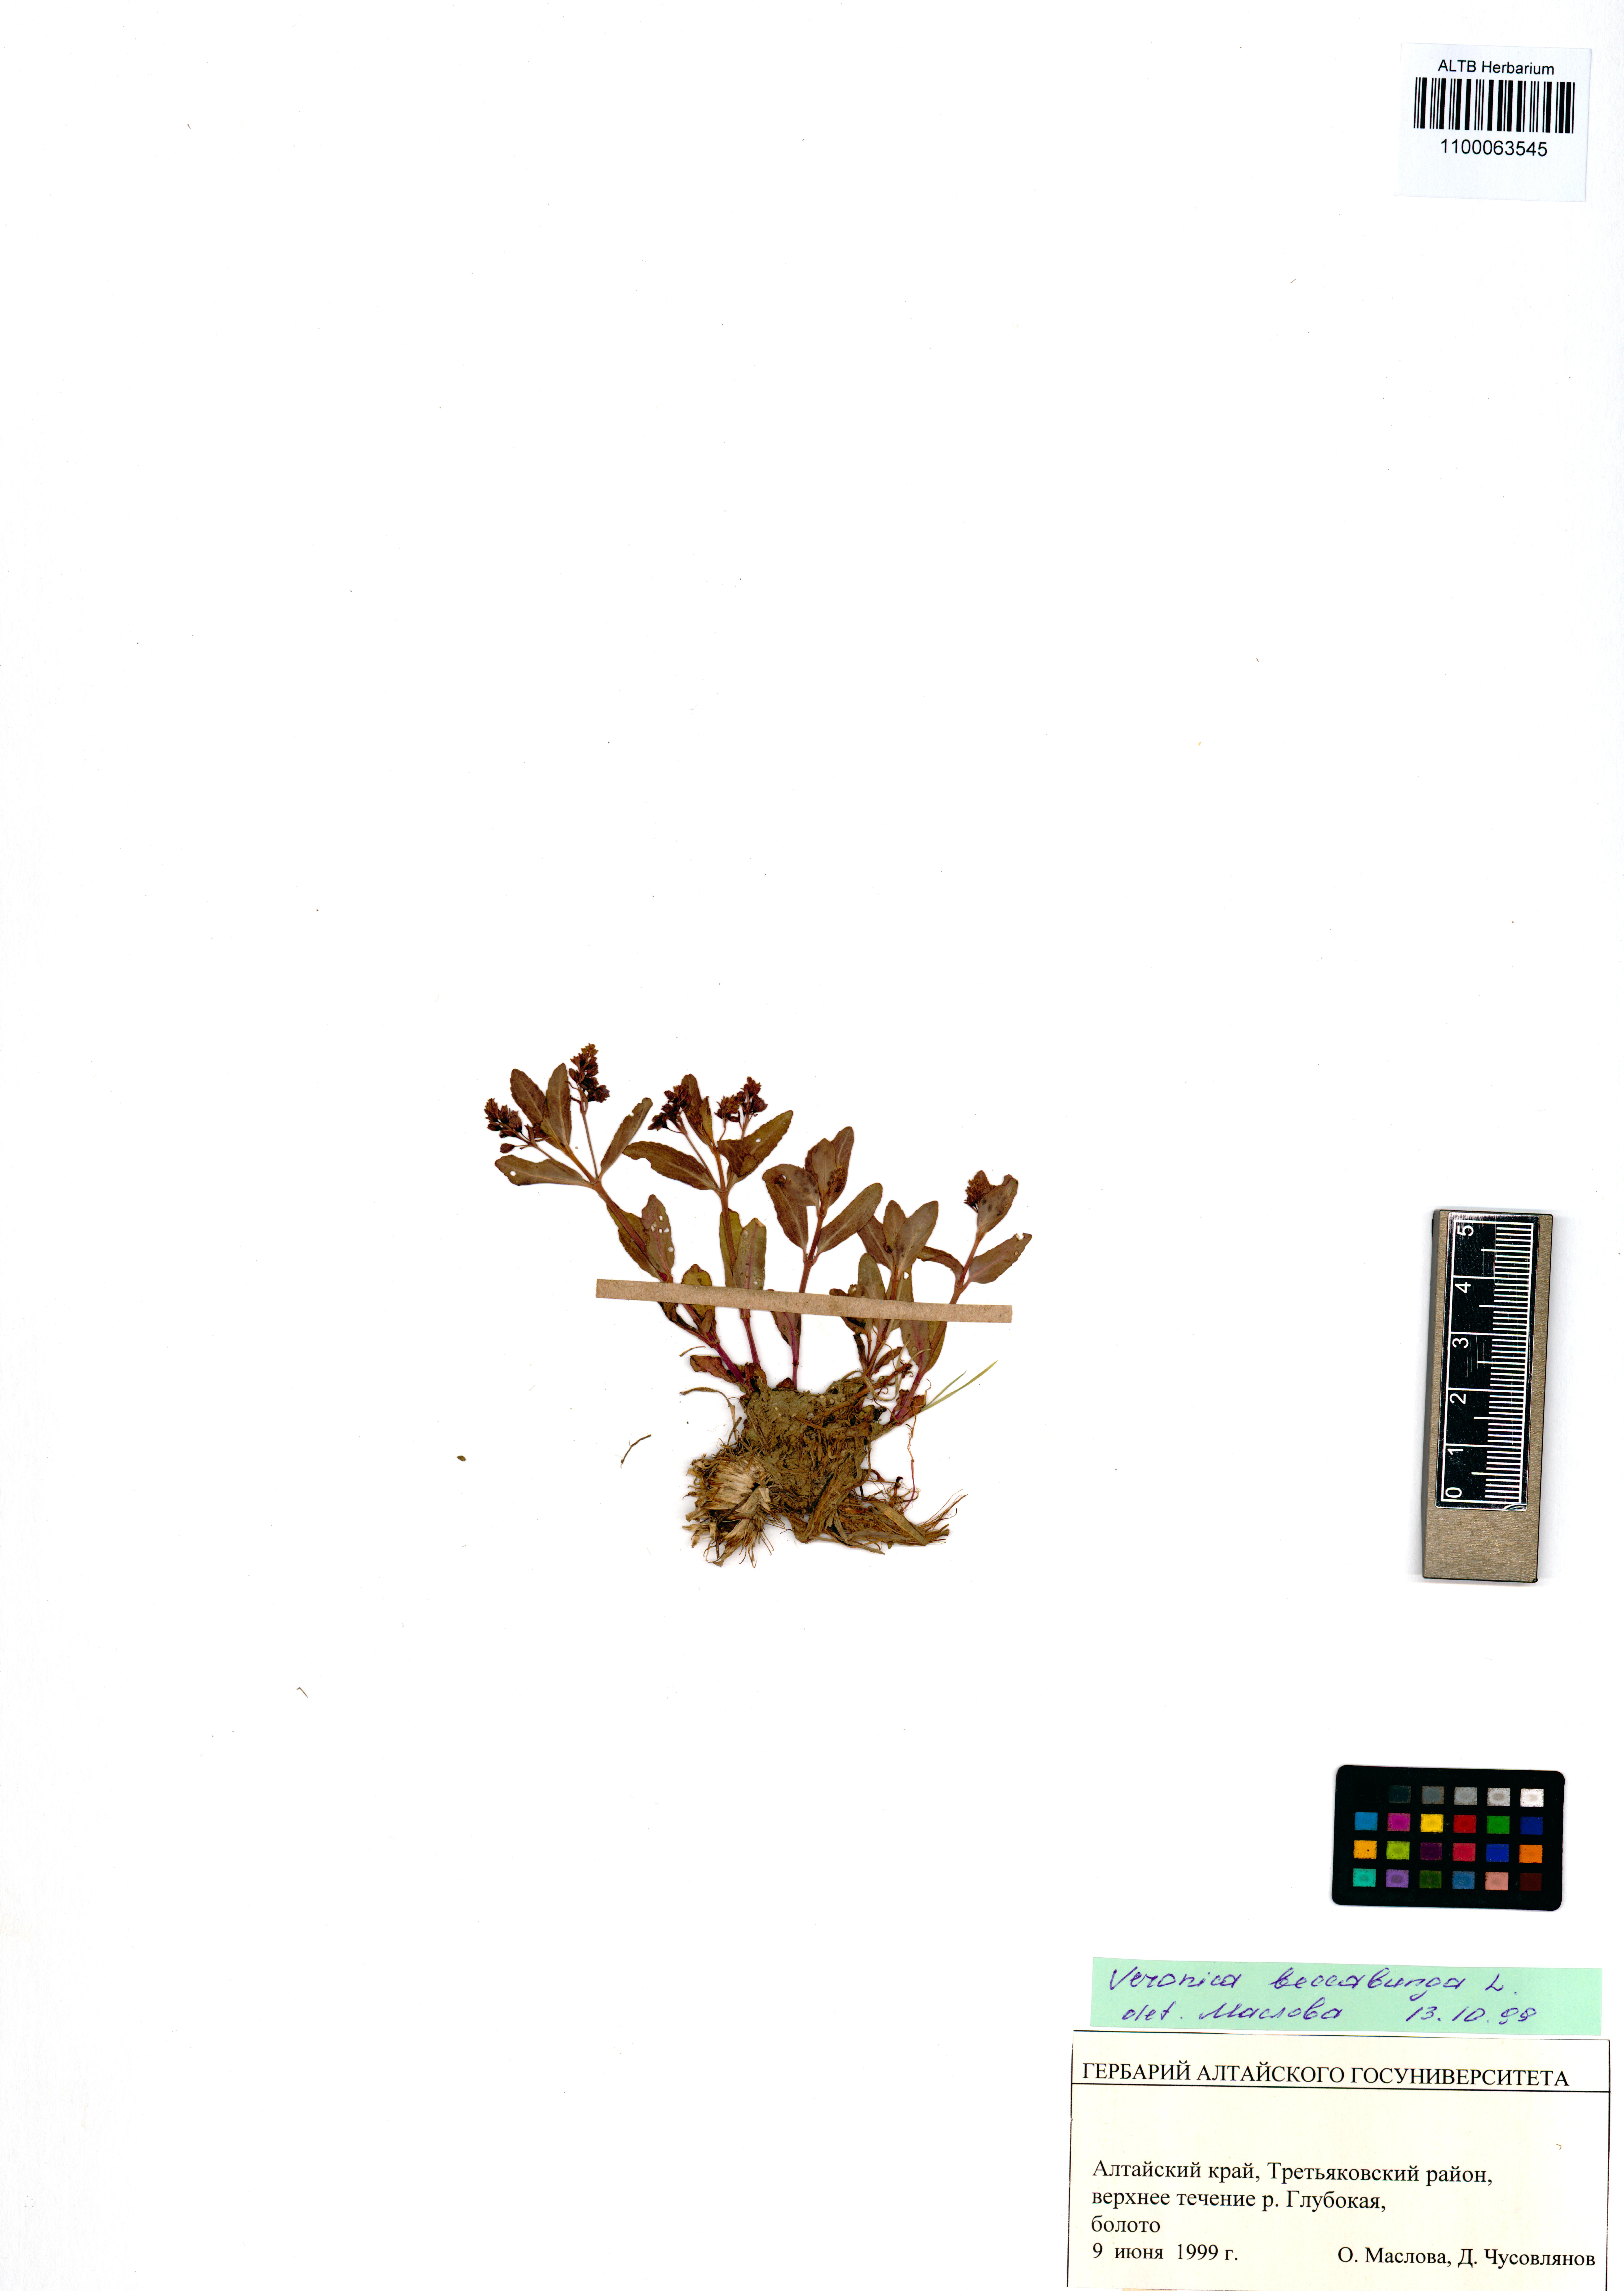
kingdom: Plantae
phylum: Tracheophyta
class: Magnoliopsida
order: Lamiales
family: Plantaginaceae
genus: Veronica
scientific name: Veronica beccabunga
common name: Brooklime
